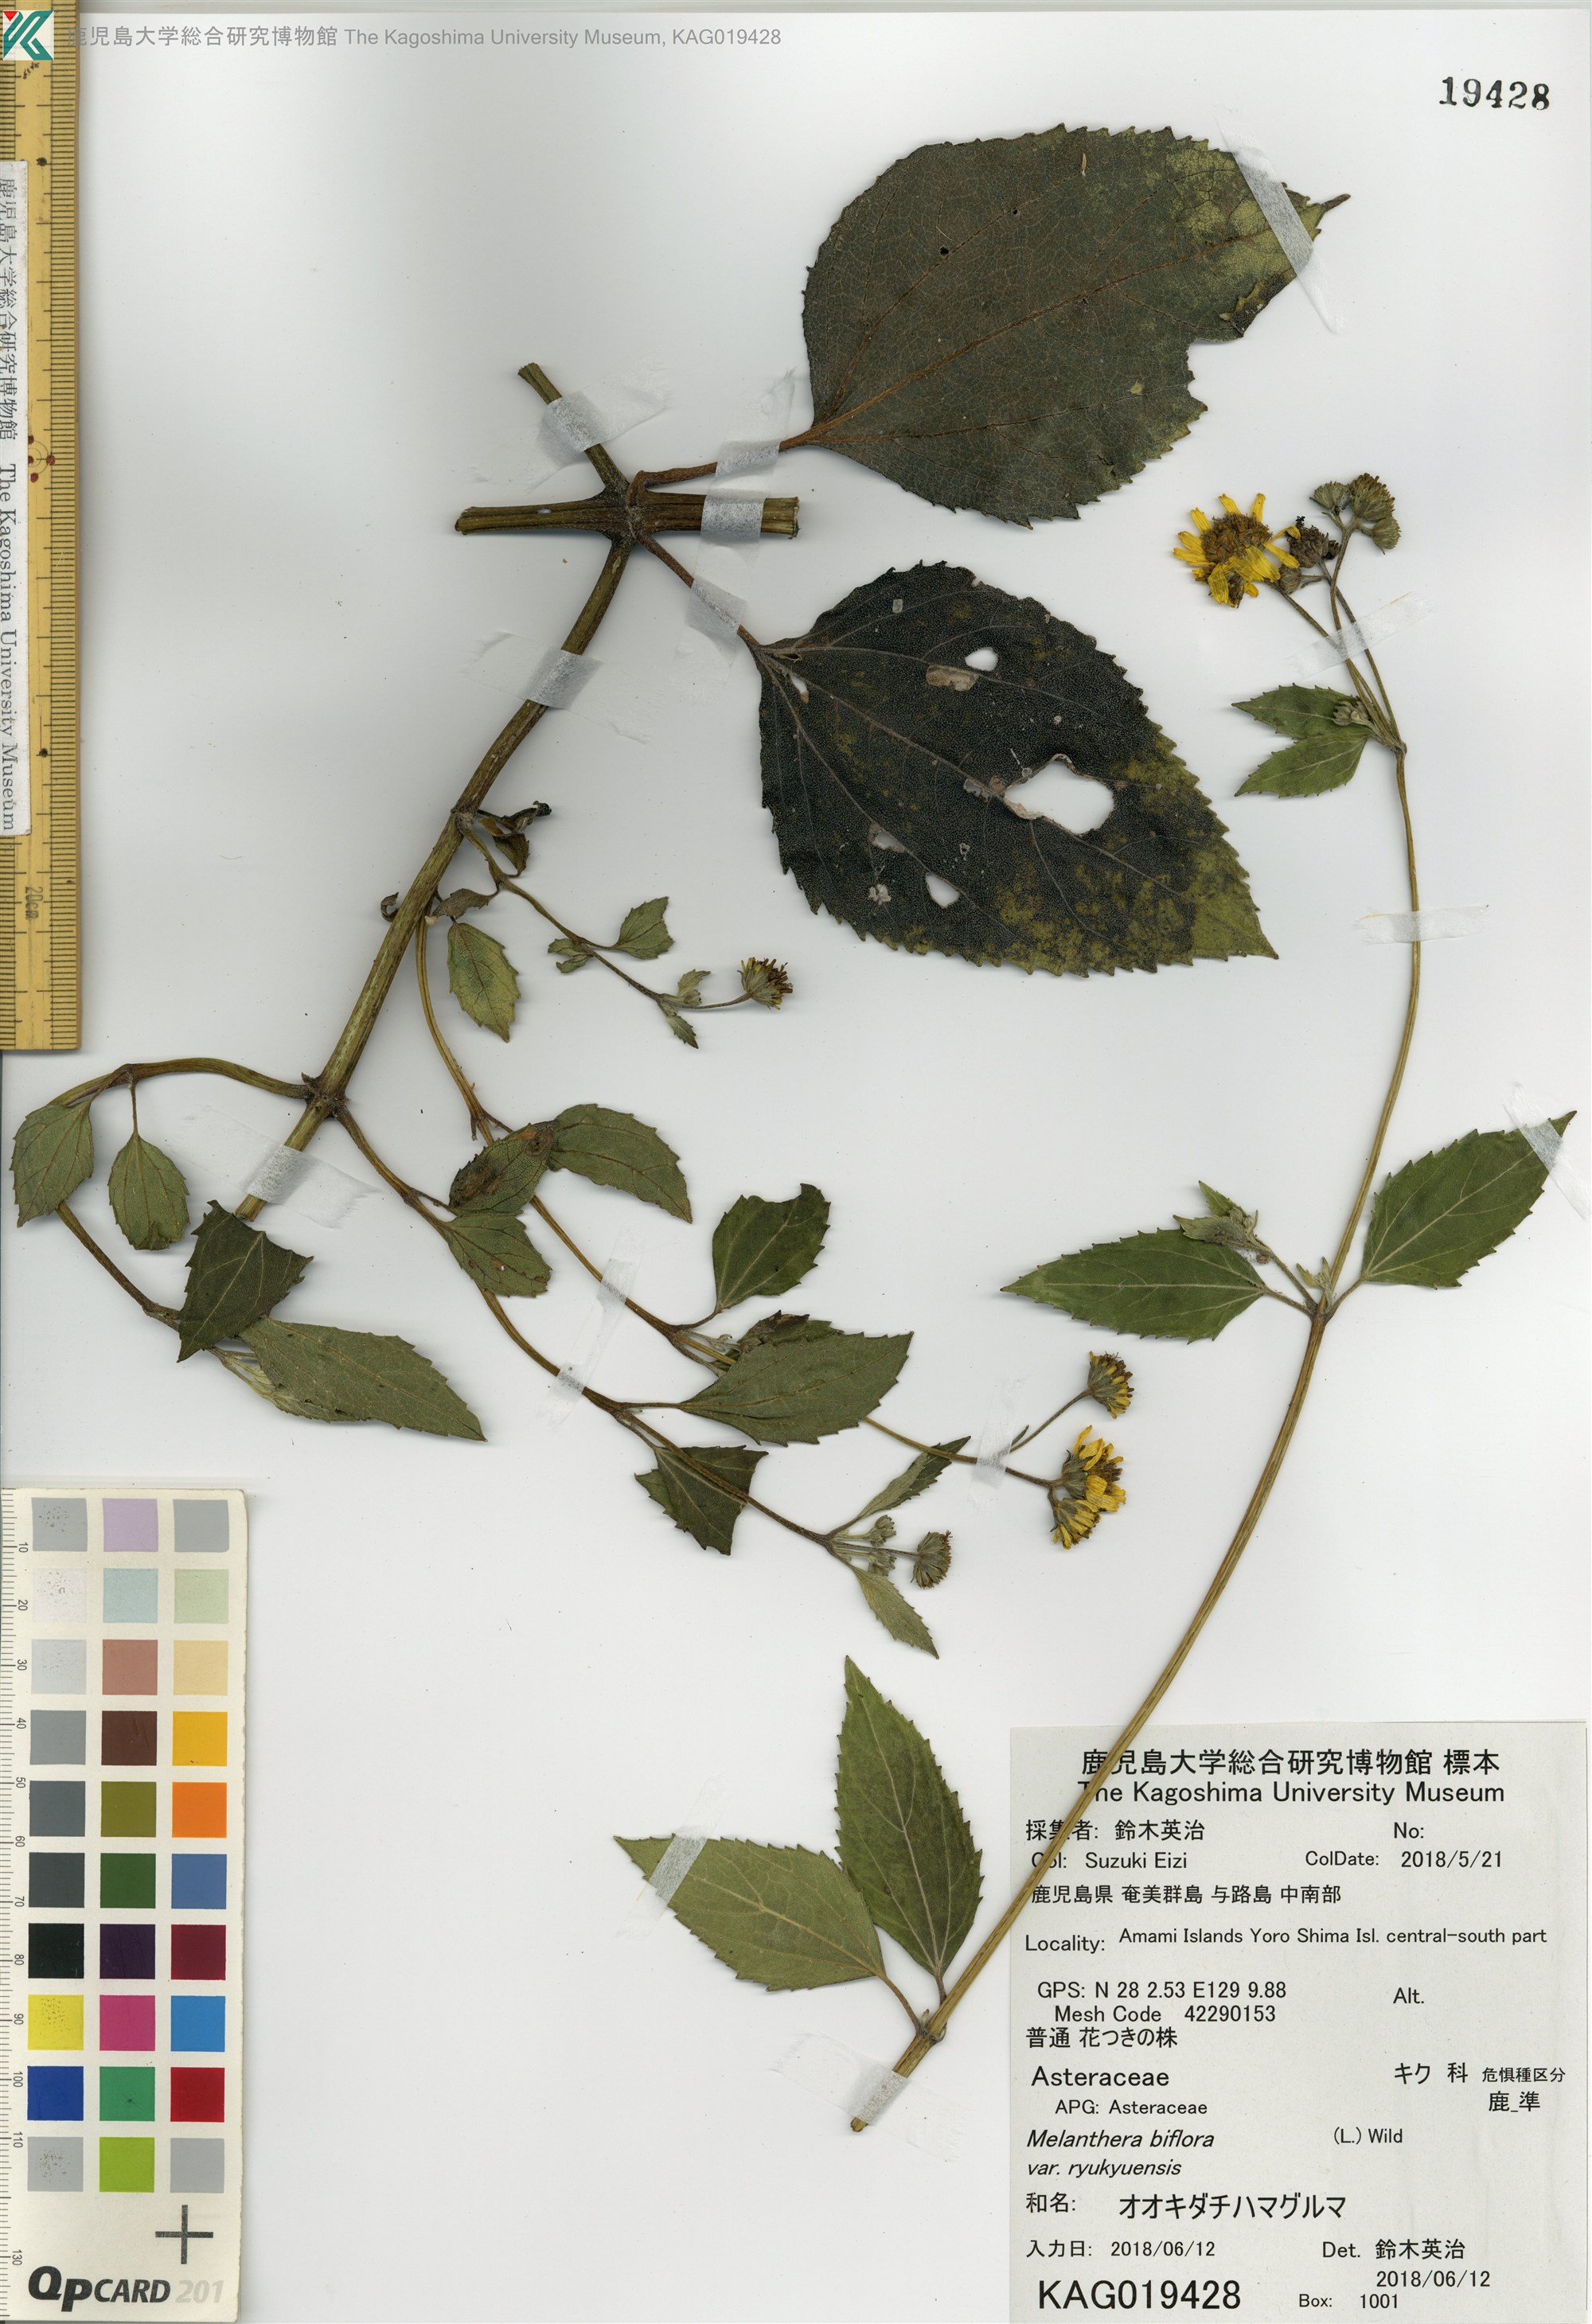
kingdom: Plantae
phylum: Tracheophyta
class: Magnoliopsida
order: Asterales
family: Asteraceae
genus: Wollastonia
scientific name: Wollastonia biflora
